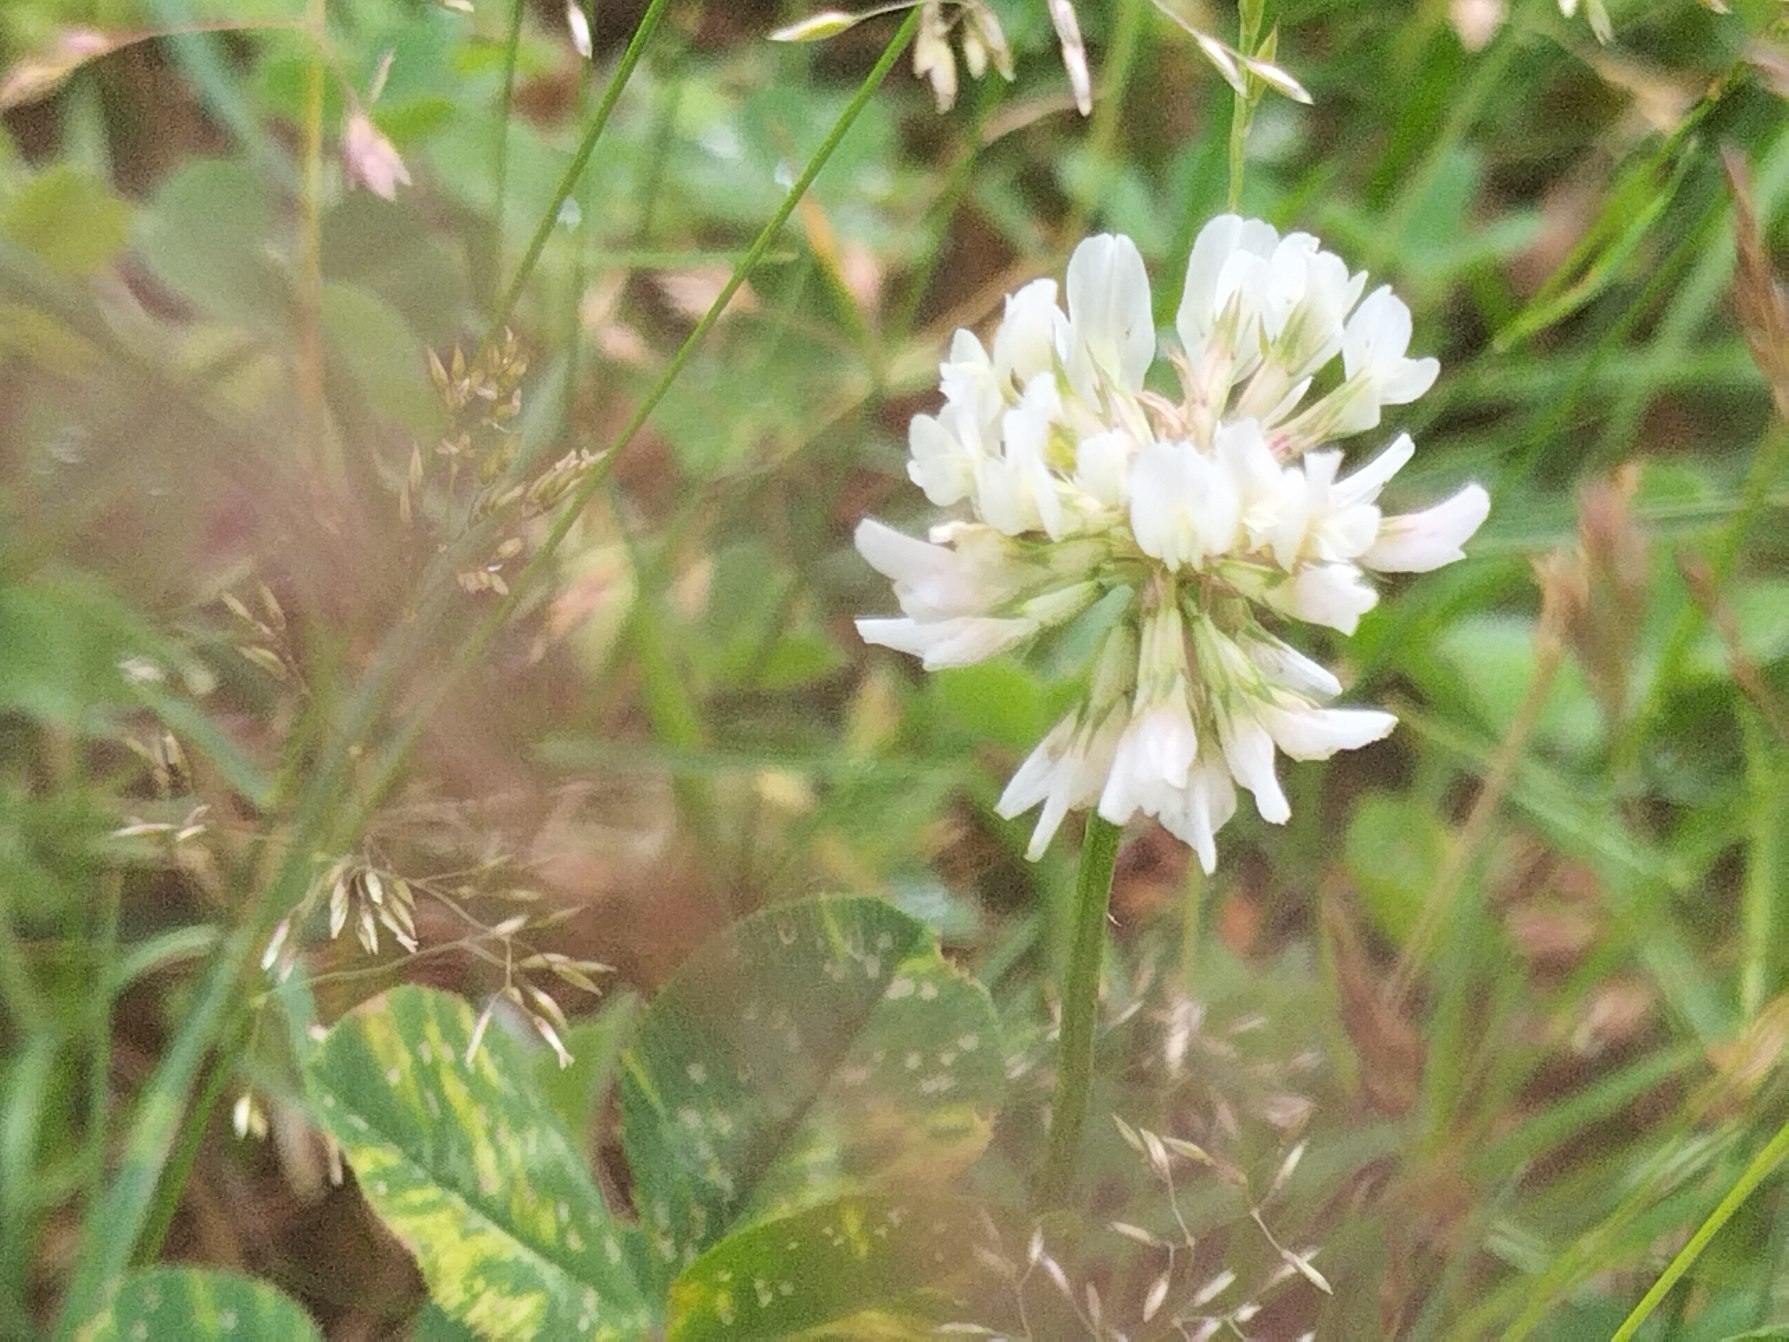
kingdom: Plantae
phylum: Tracheophyta
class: Magnoliopsida
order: Fabales
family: Fabaceae
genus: Trifolium
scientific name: Trifolium repens
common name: Hvid-kløver
